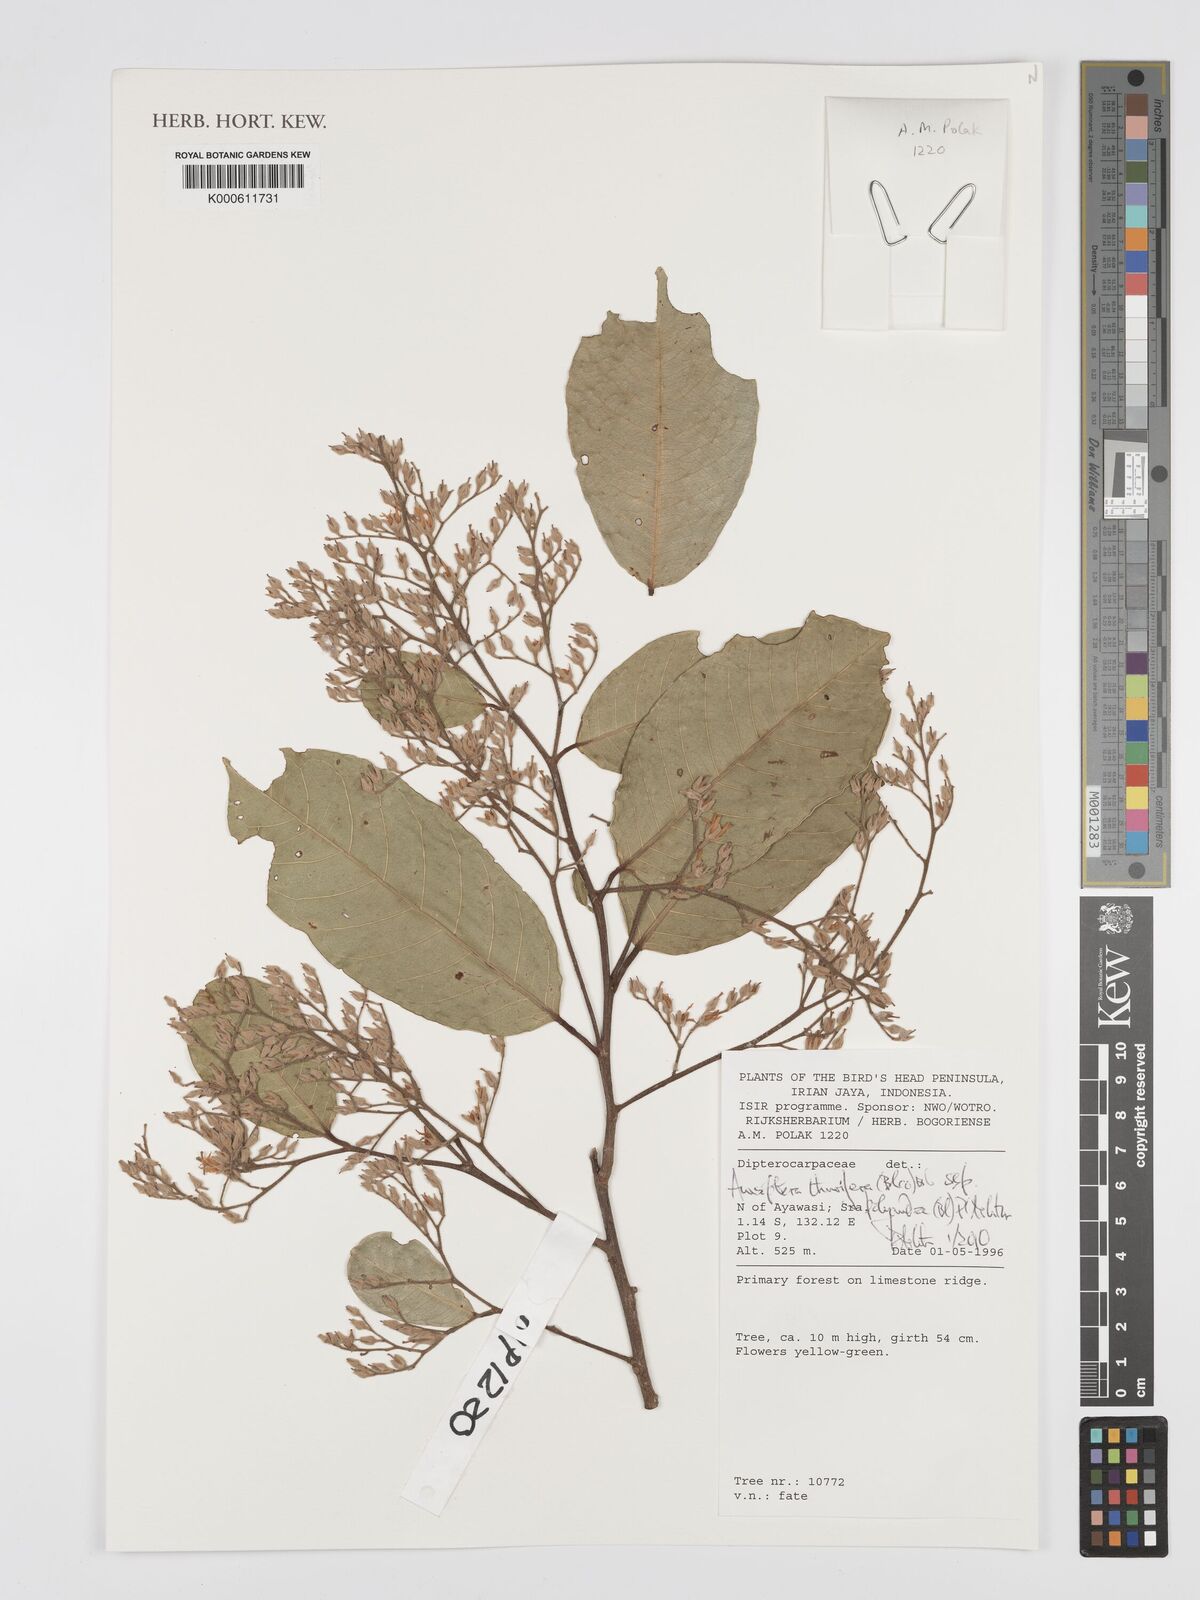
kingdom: Plantae
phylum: Tracheophyta
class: Magnoliopsida
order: Malvales
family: Dipterocarpaceae
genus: Anisoptera
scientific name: Anisoptera thurifera
